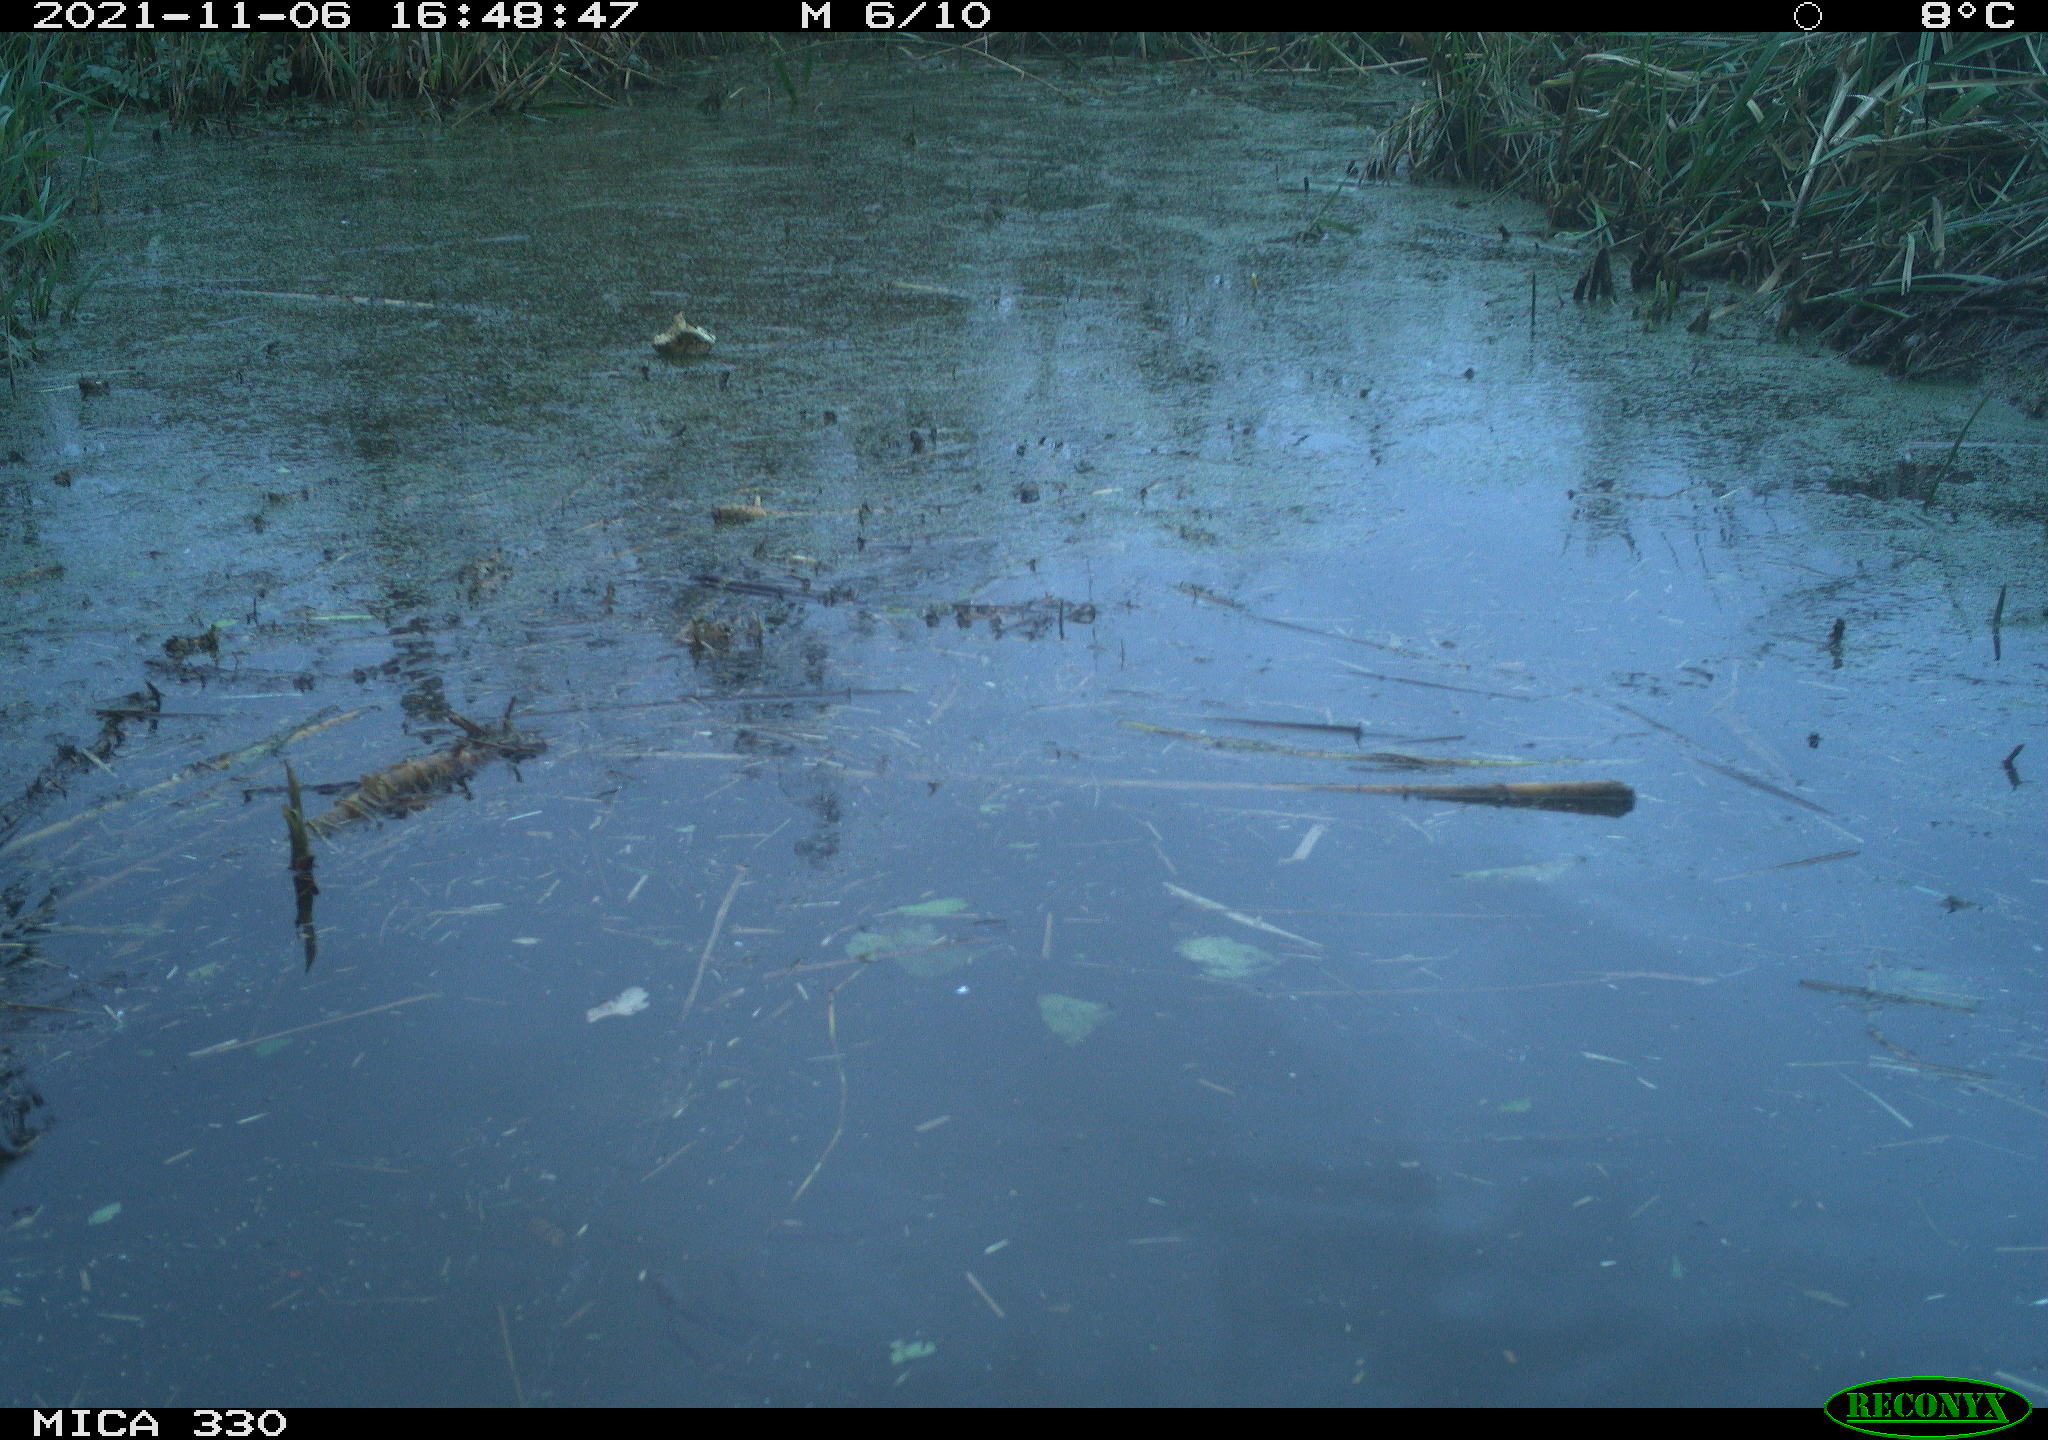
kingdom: Animalia
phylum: Chordata
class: Aves
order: Gruiformes
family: Rallidae
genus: Gallinula
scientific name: Gallinula chloropus
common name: Common moorhen
